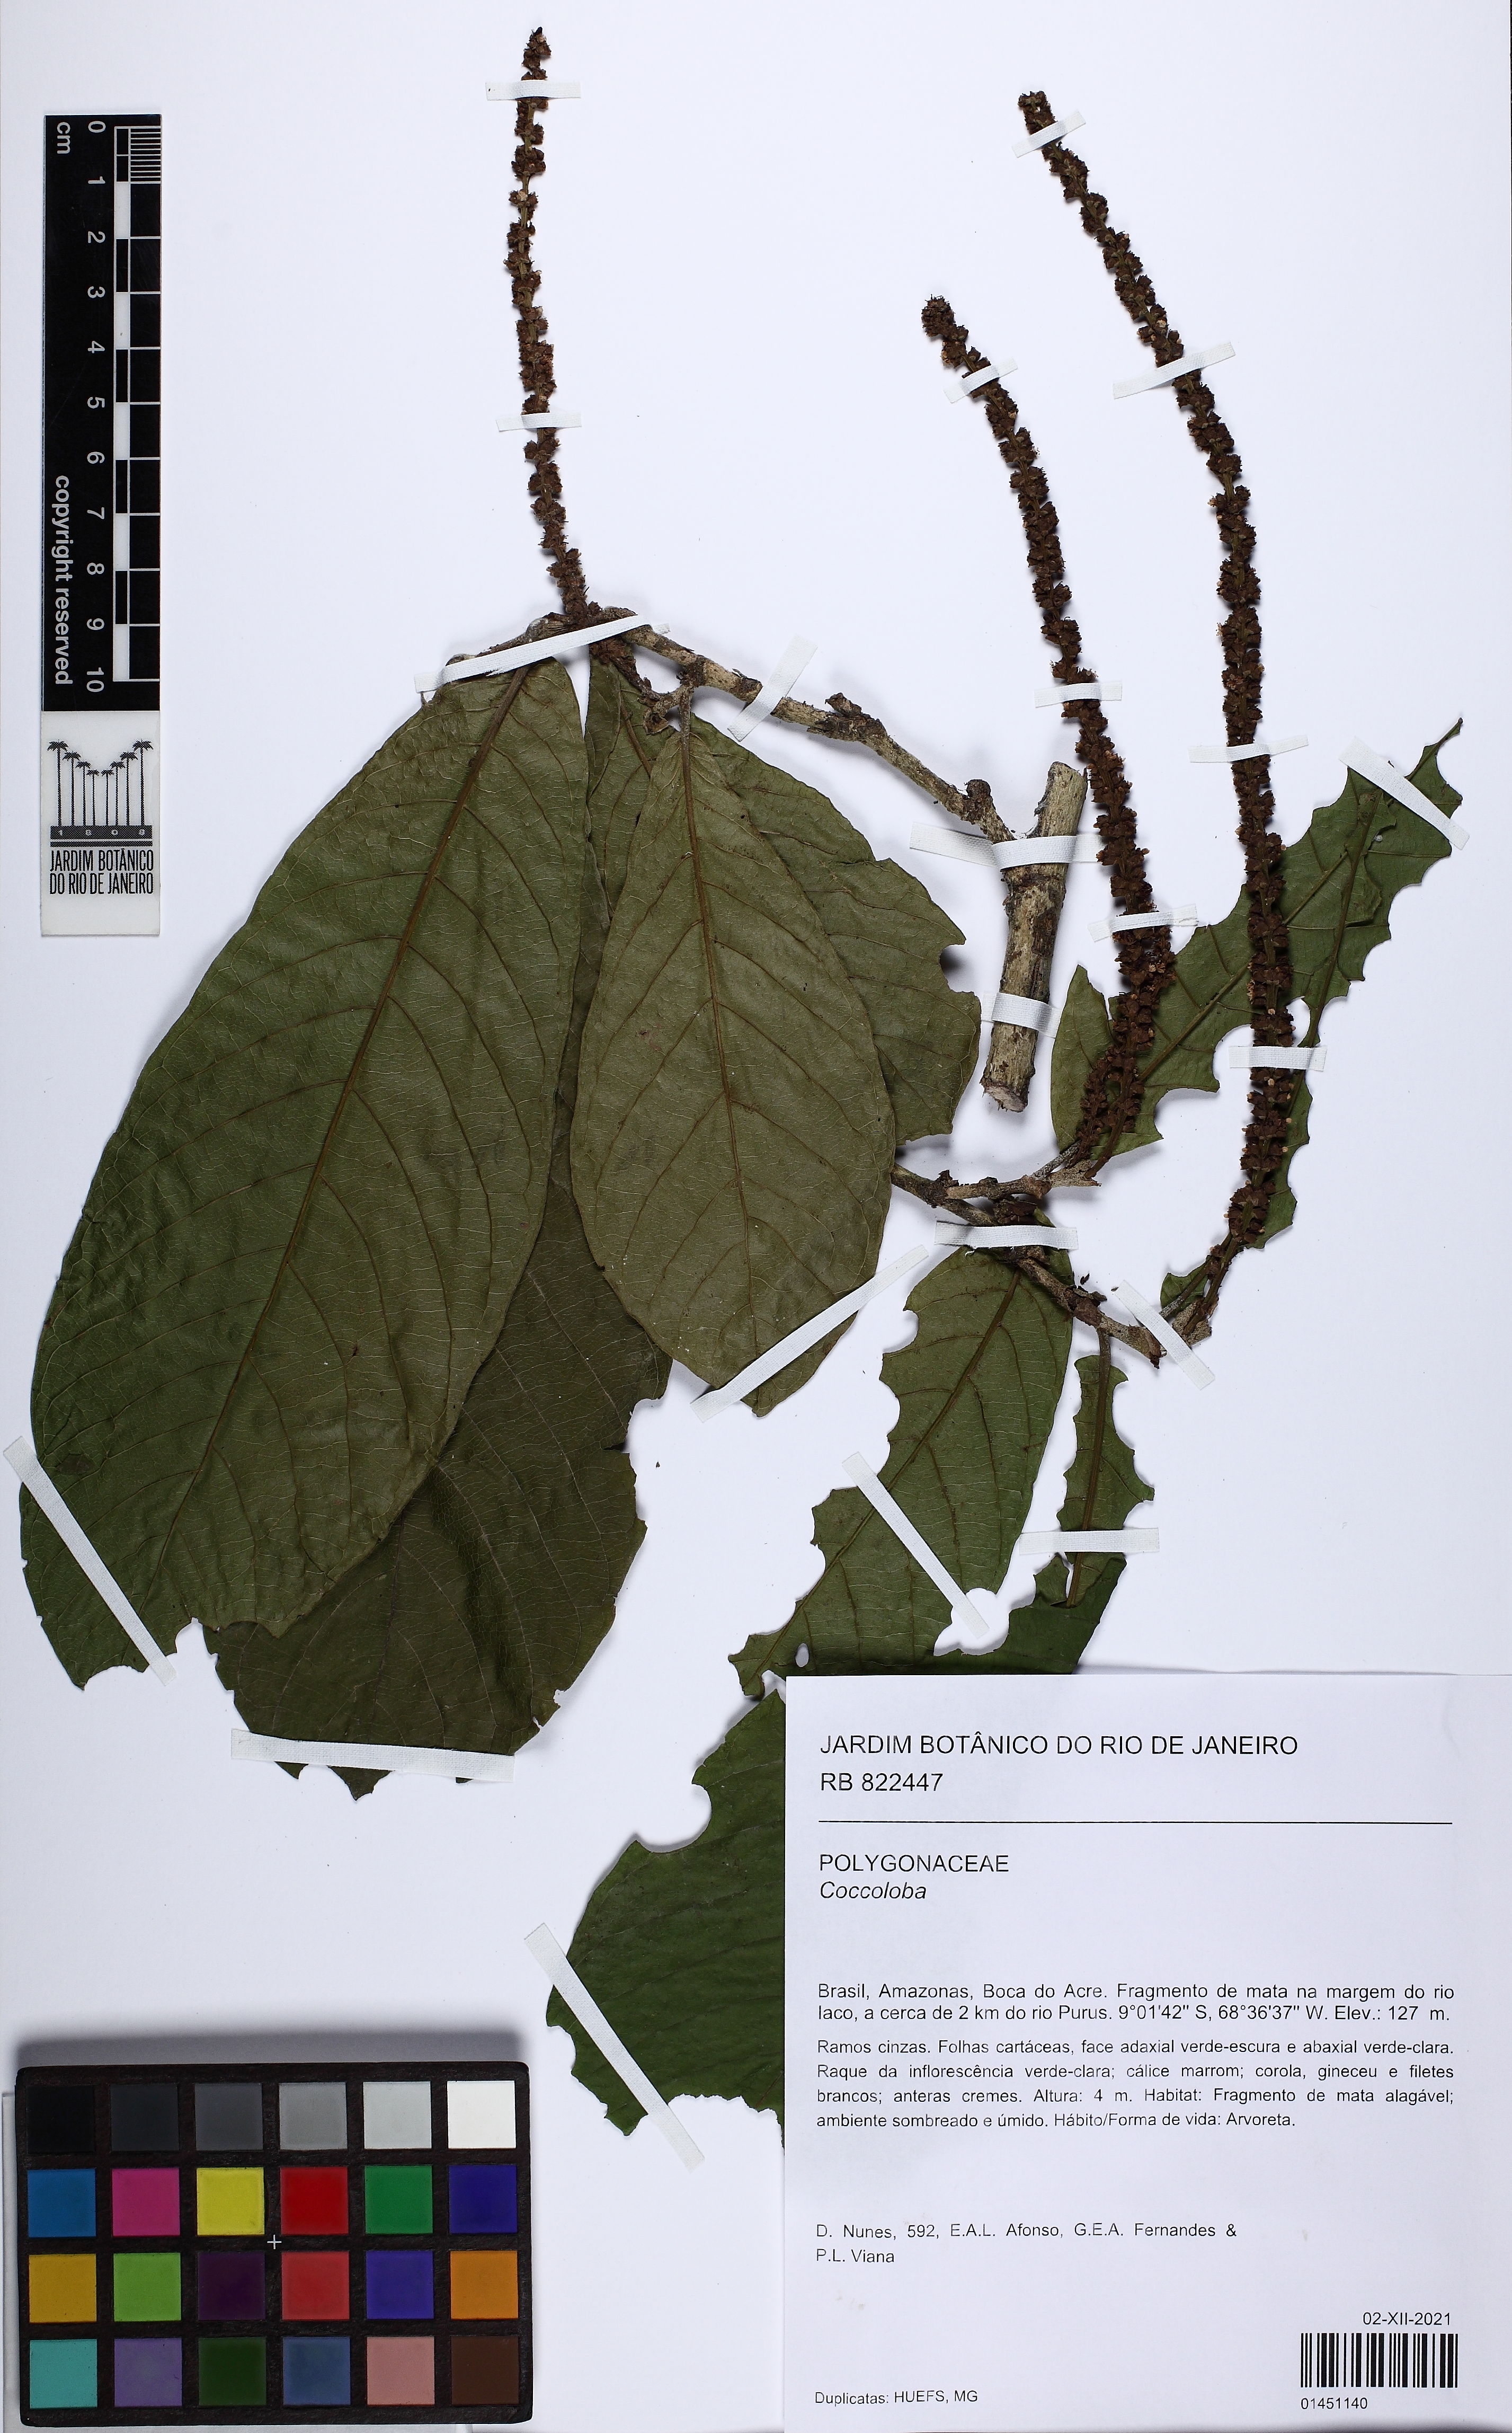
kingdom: Plantae
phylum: Tracheophyta
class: Magnoliopsida
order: Caryophyllales
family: Polygonaceae
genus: Coccoloba
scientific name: Coccoloba
